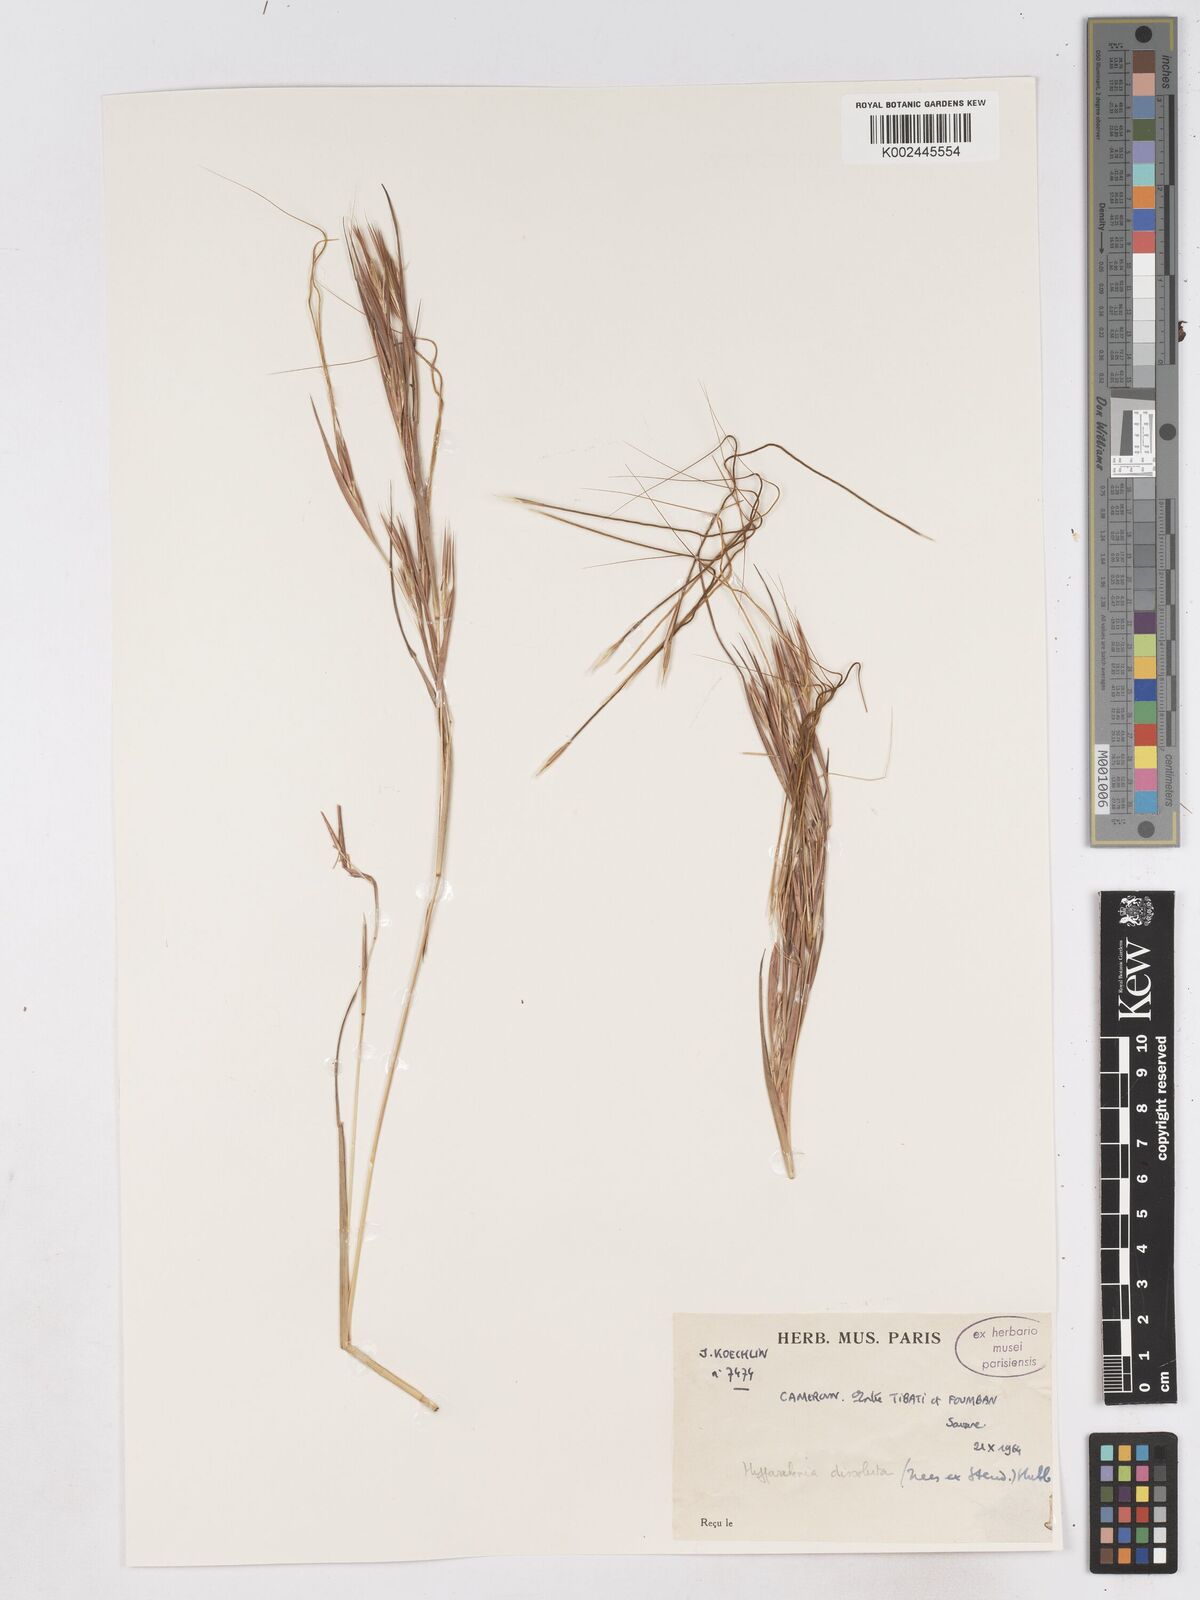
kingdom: Plantae
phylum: Tracheophyta
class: Liliopsida
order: Poales
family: Poaceae
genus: Hyperthelia
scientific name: Hyperthelia dissoluta
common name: Yellow thatching grass
